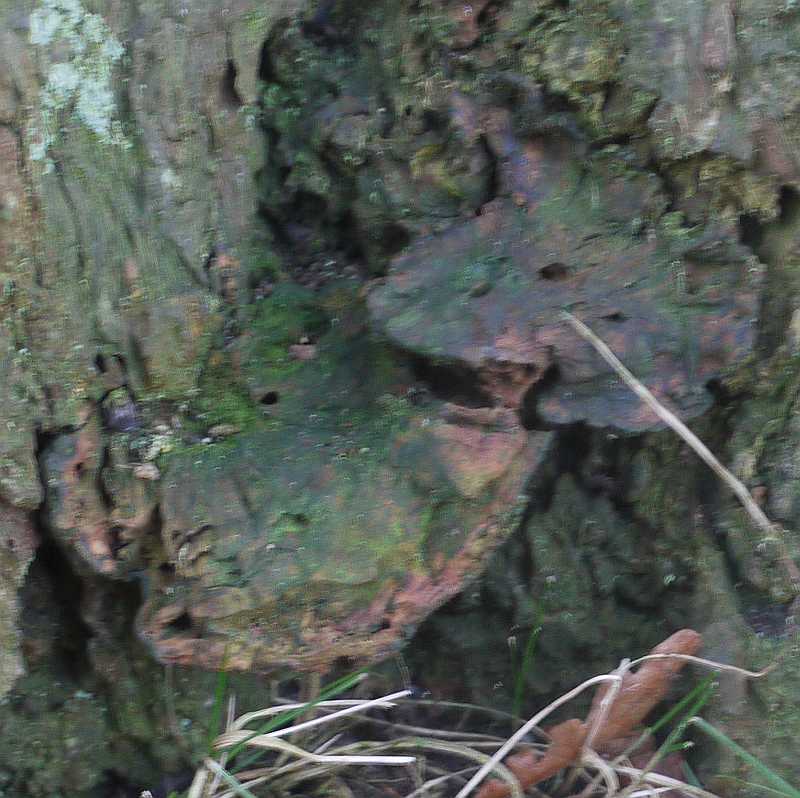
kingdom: Fungi
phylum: Basidiomycota
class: Agaricomycetes
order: Hymenochaetales
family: Hymenochaetaceae
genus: Pseudoinonotus
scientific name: Pseudoinonotus dryadeus
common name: ege-spejlporesvamp
